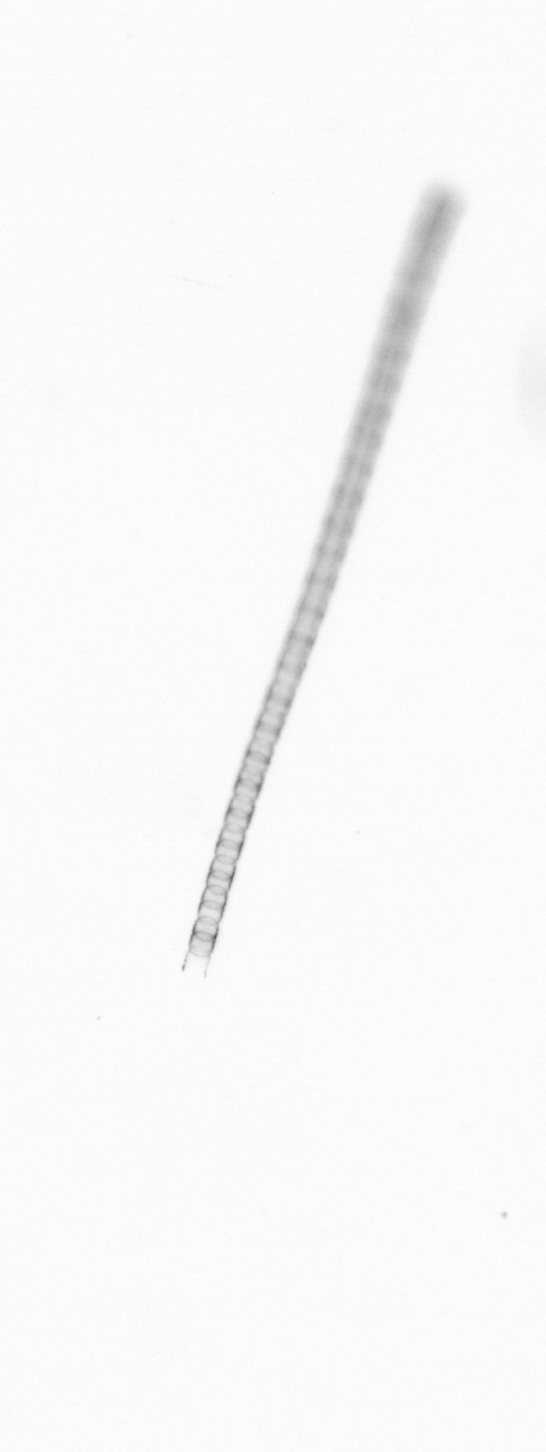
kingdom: Chromista
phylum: Ochrophyta
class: Bacillariophyceae
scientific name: Bacillariophyceae
